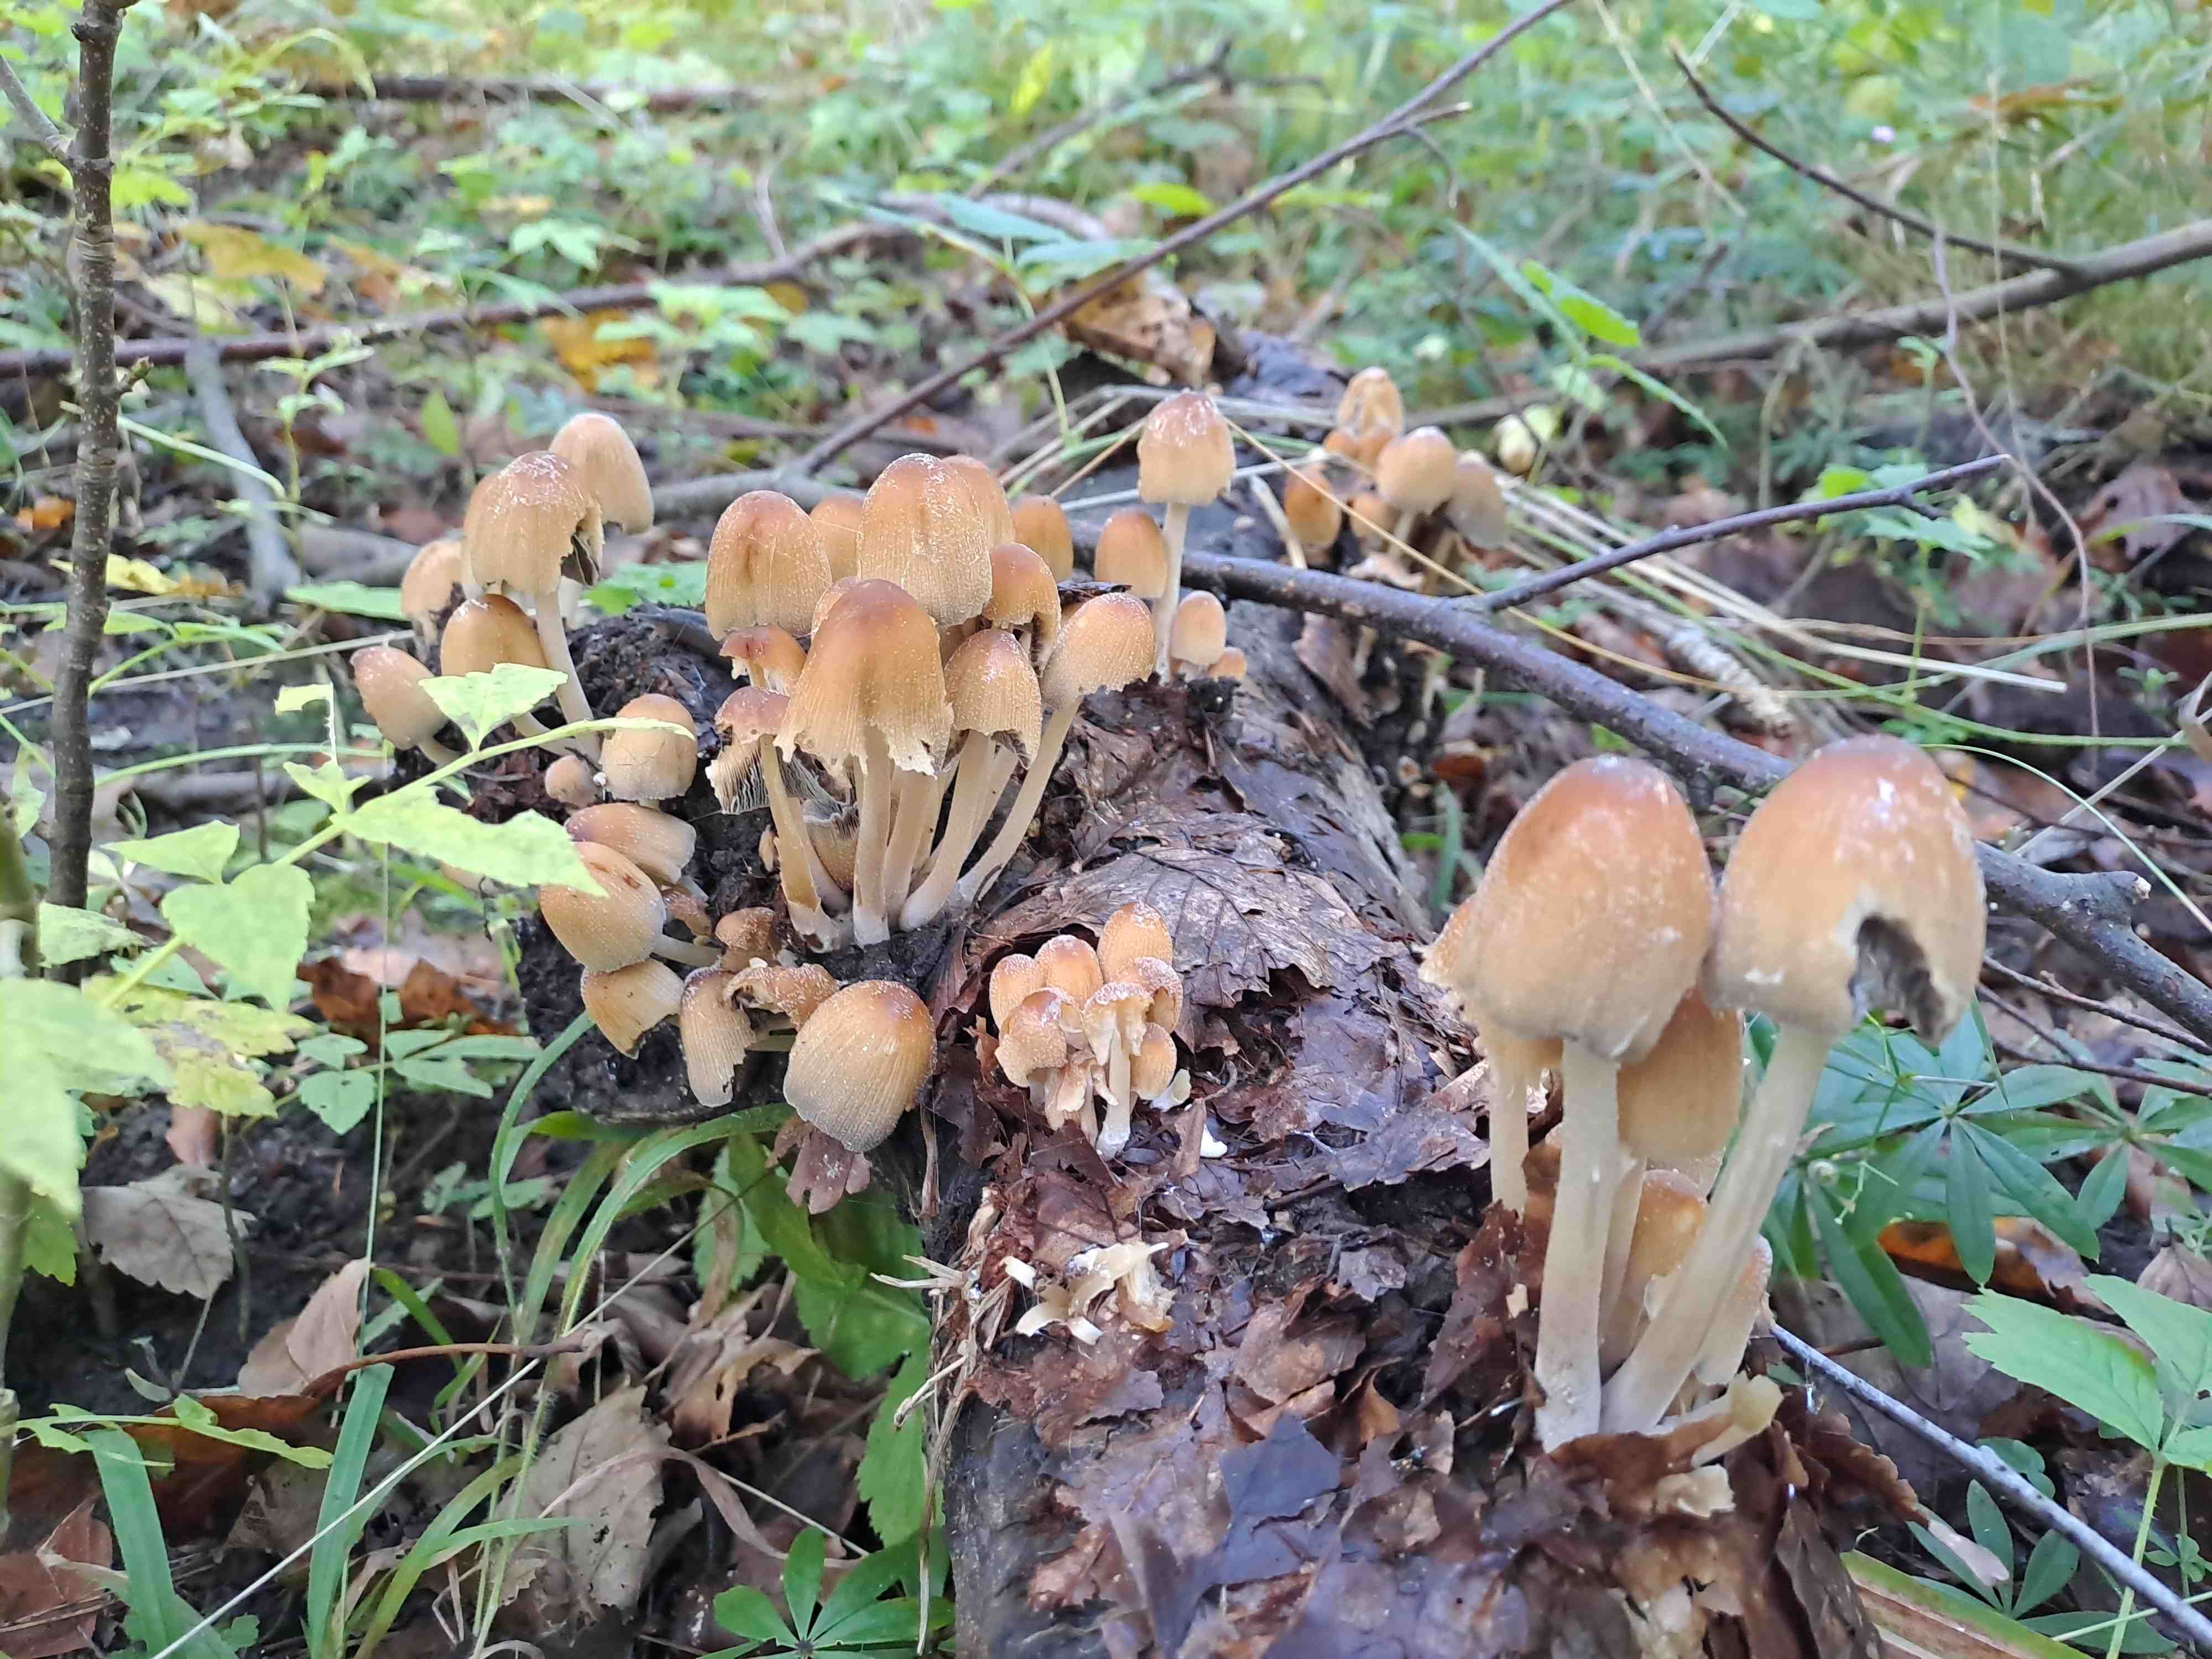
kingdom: Fungi
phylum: Basidiomycota
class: Agaricomycetes
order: Agaricales
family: Psathyrellaceae
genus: Coprinellus
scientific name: Coprinellus micaceus
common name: glimmer-blækhat
